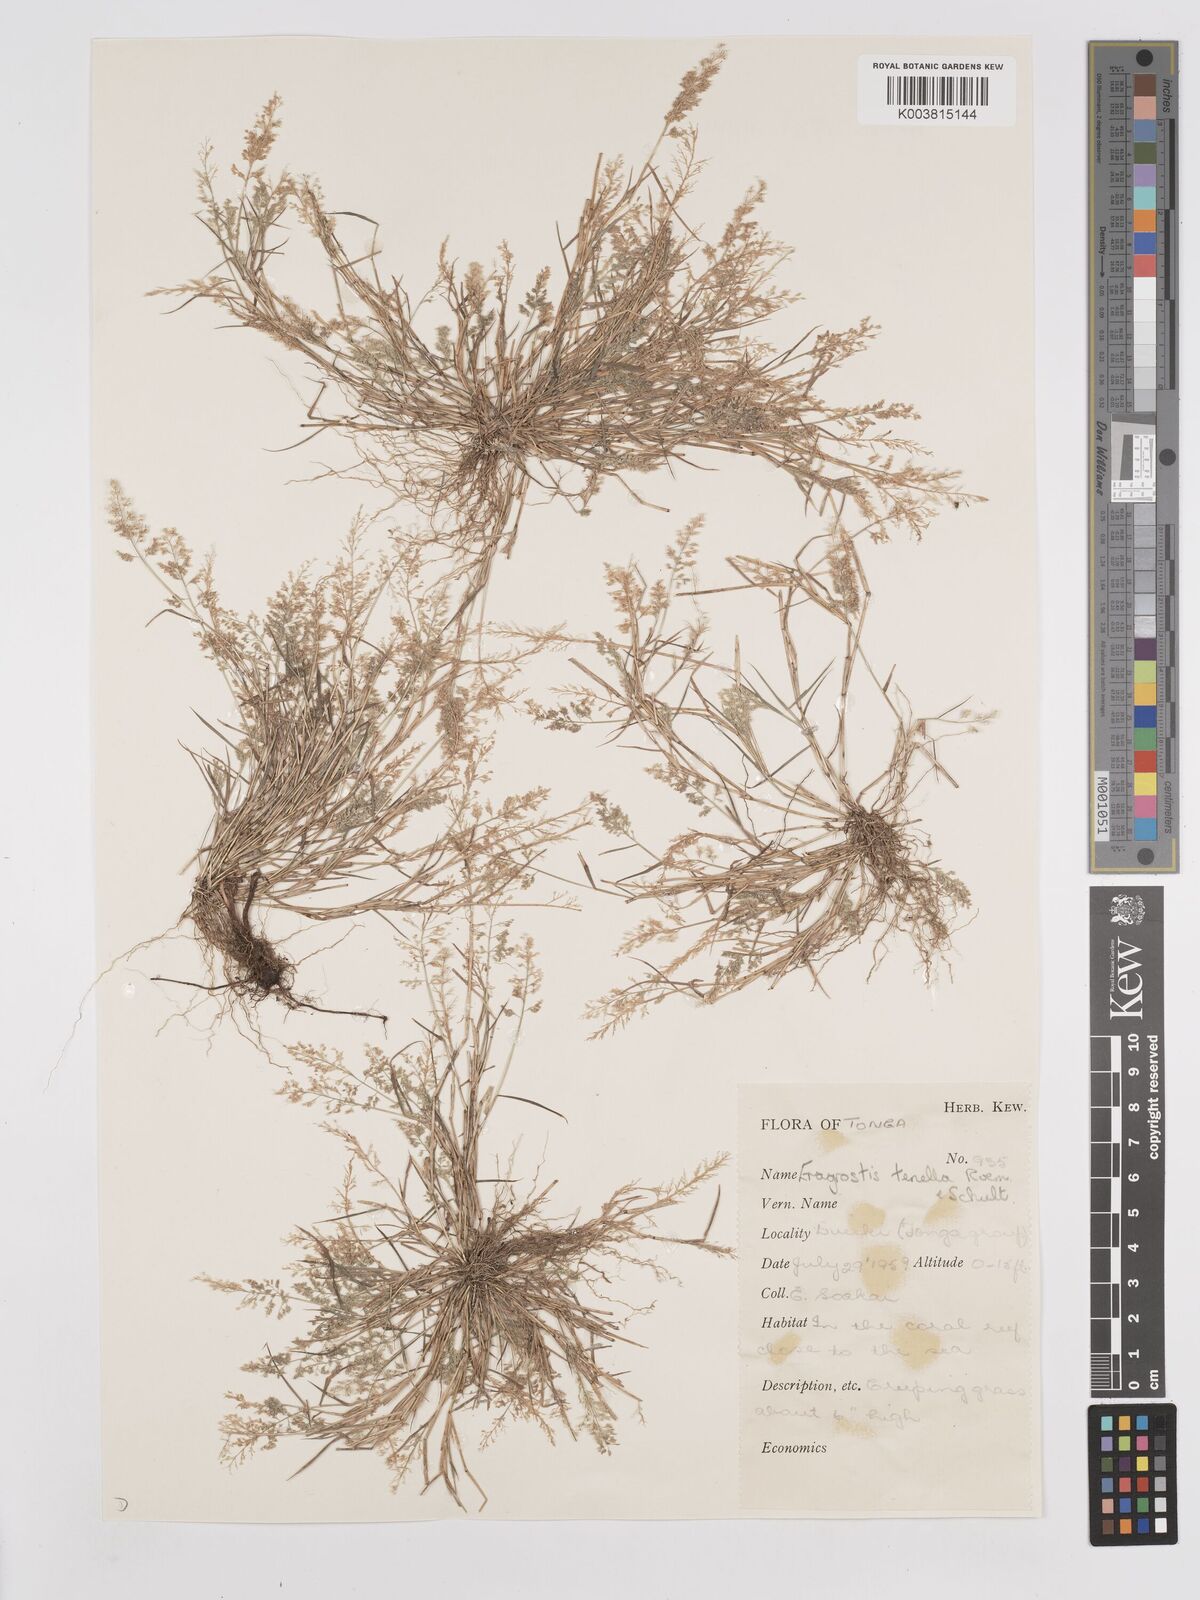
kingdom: Plantae
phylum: Tracheophyta
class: Liliopsida
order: Poales
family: Poaceae
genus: Eragrostis
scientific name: Eragrostis tenella
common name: Japanese lovegrass
